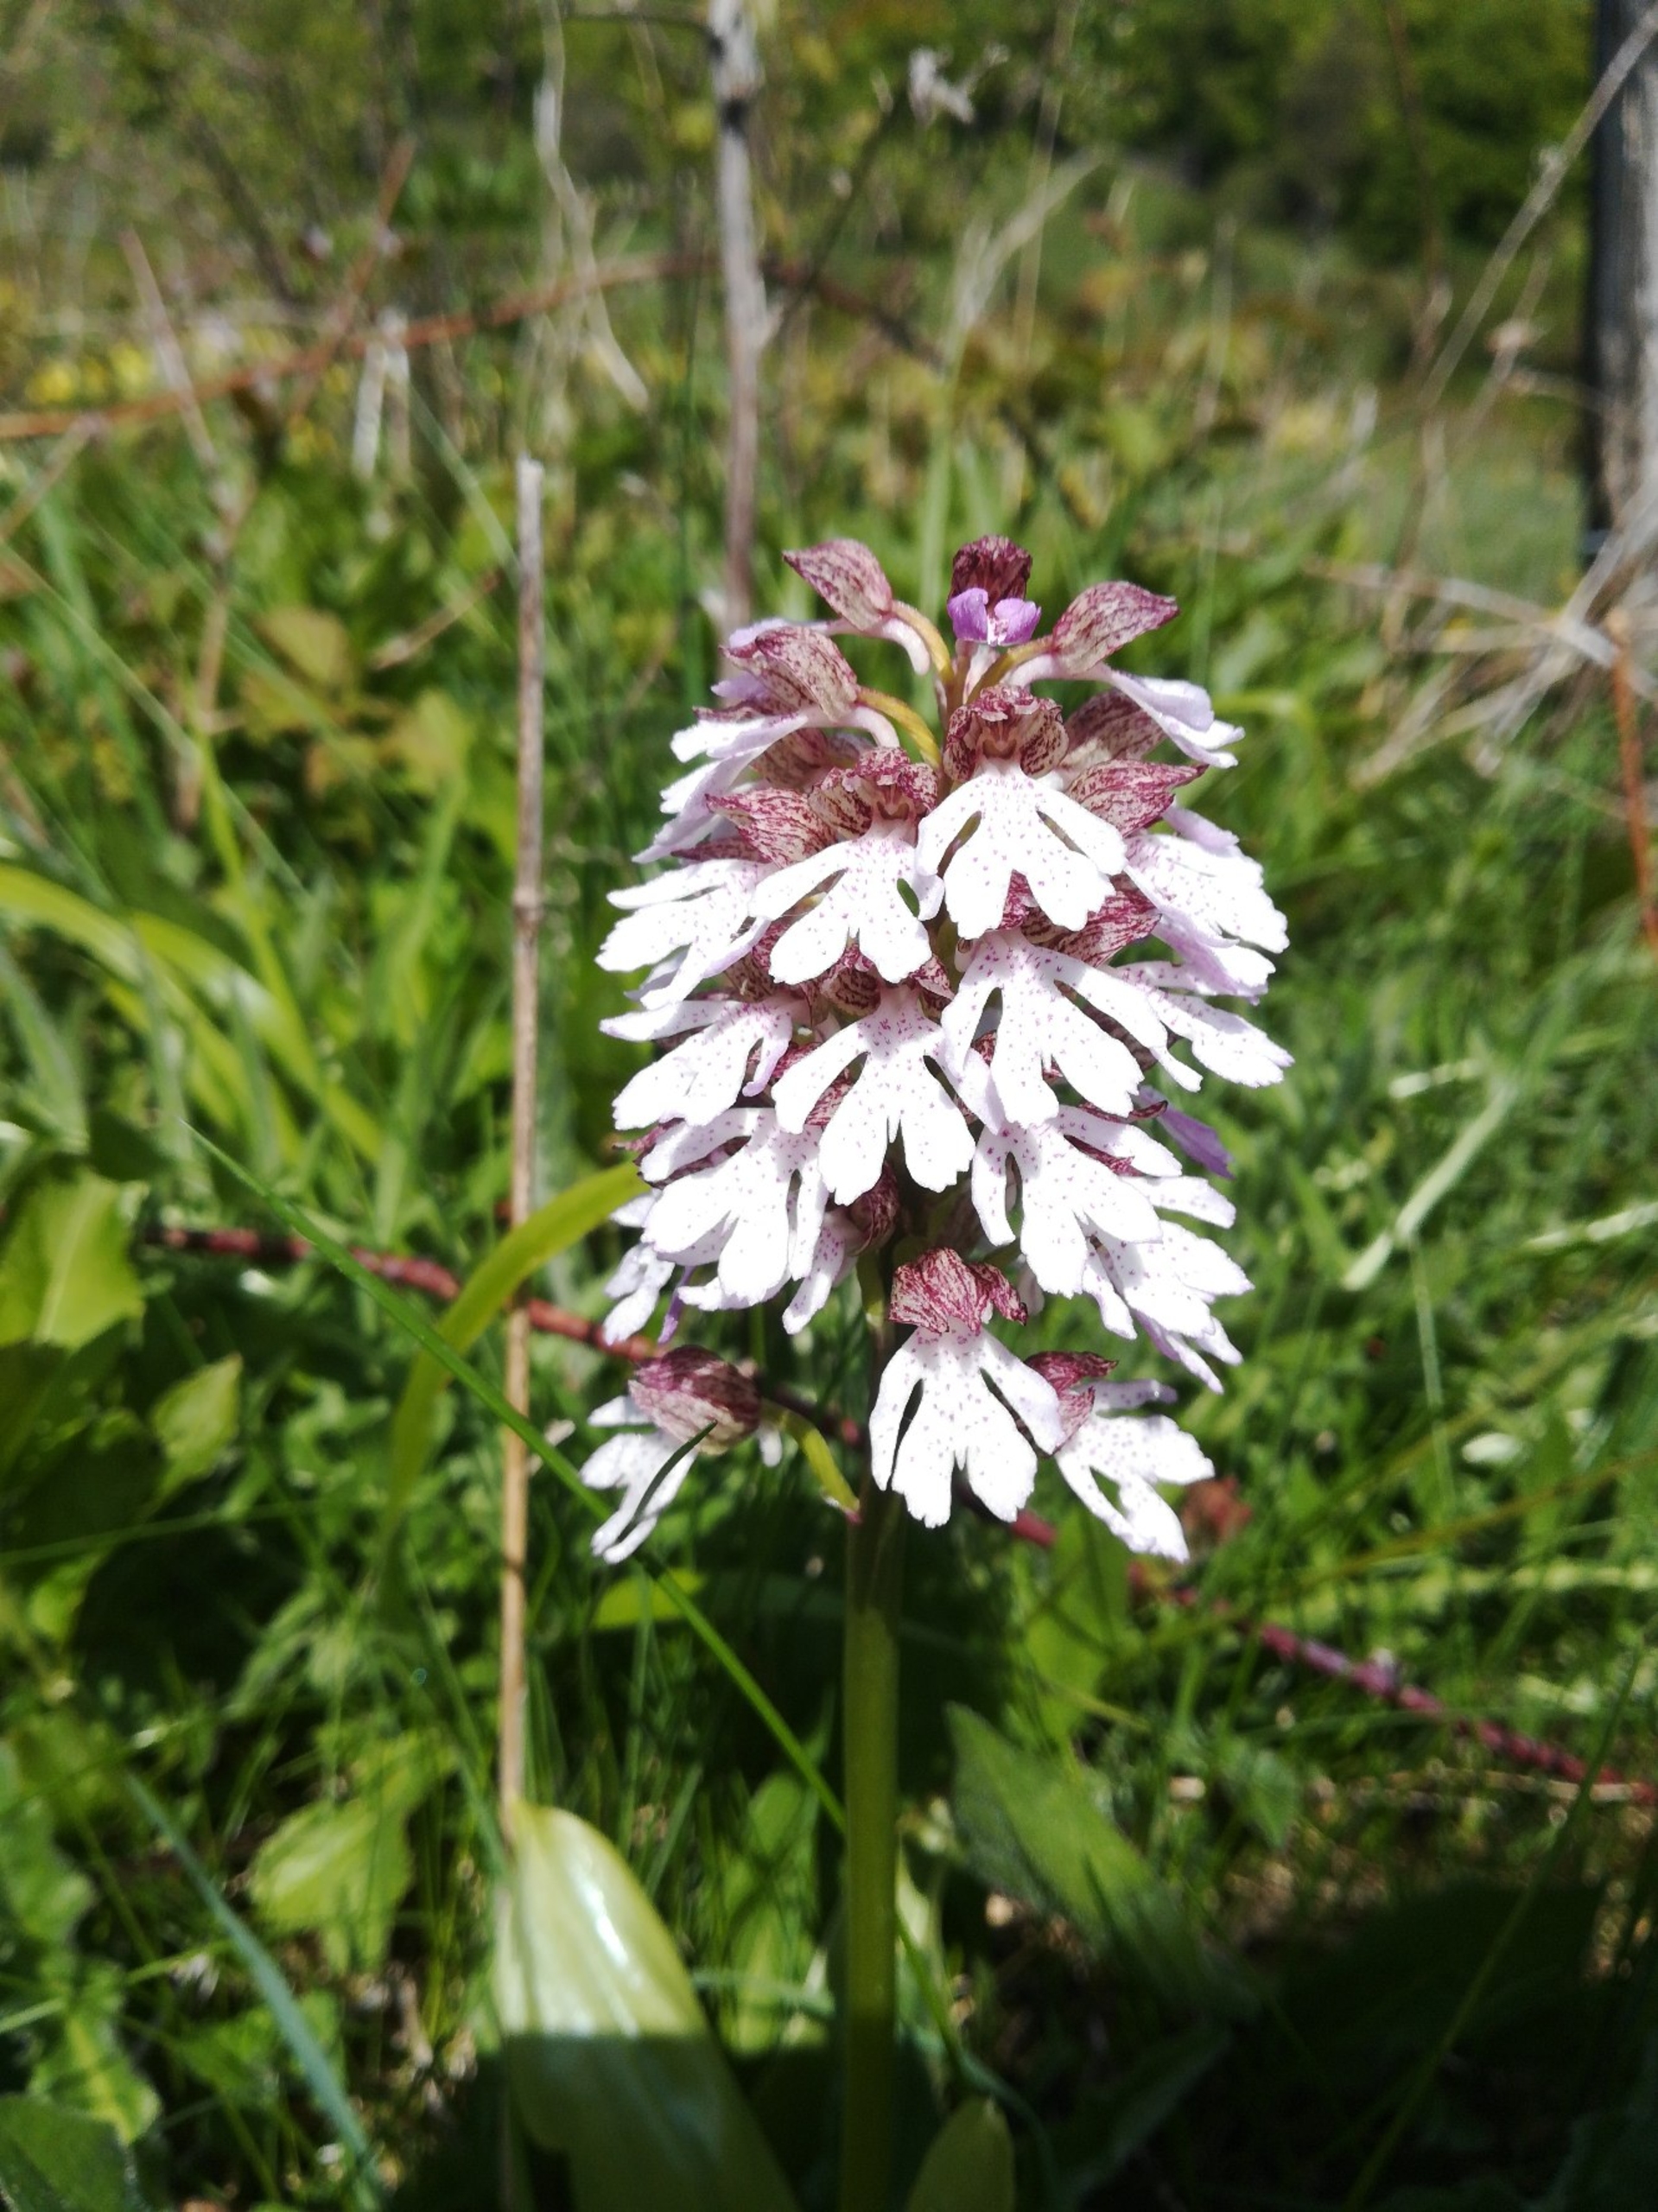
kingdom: Plantae
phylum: Tracheophyta
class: Liliopsida
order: Asparagales
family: Orchidaceae
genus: Orchis
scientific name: Orchis purpurea
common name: Stor gøgeurt
